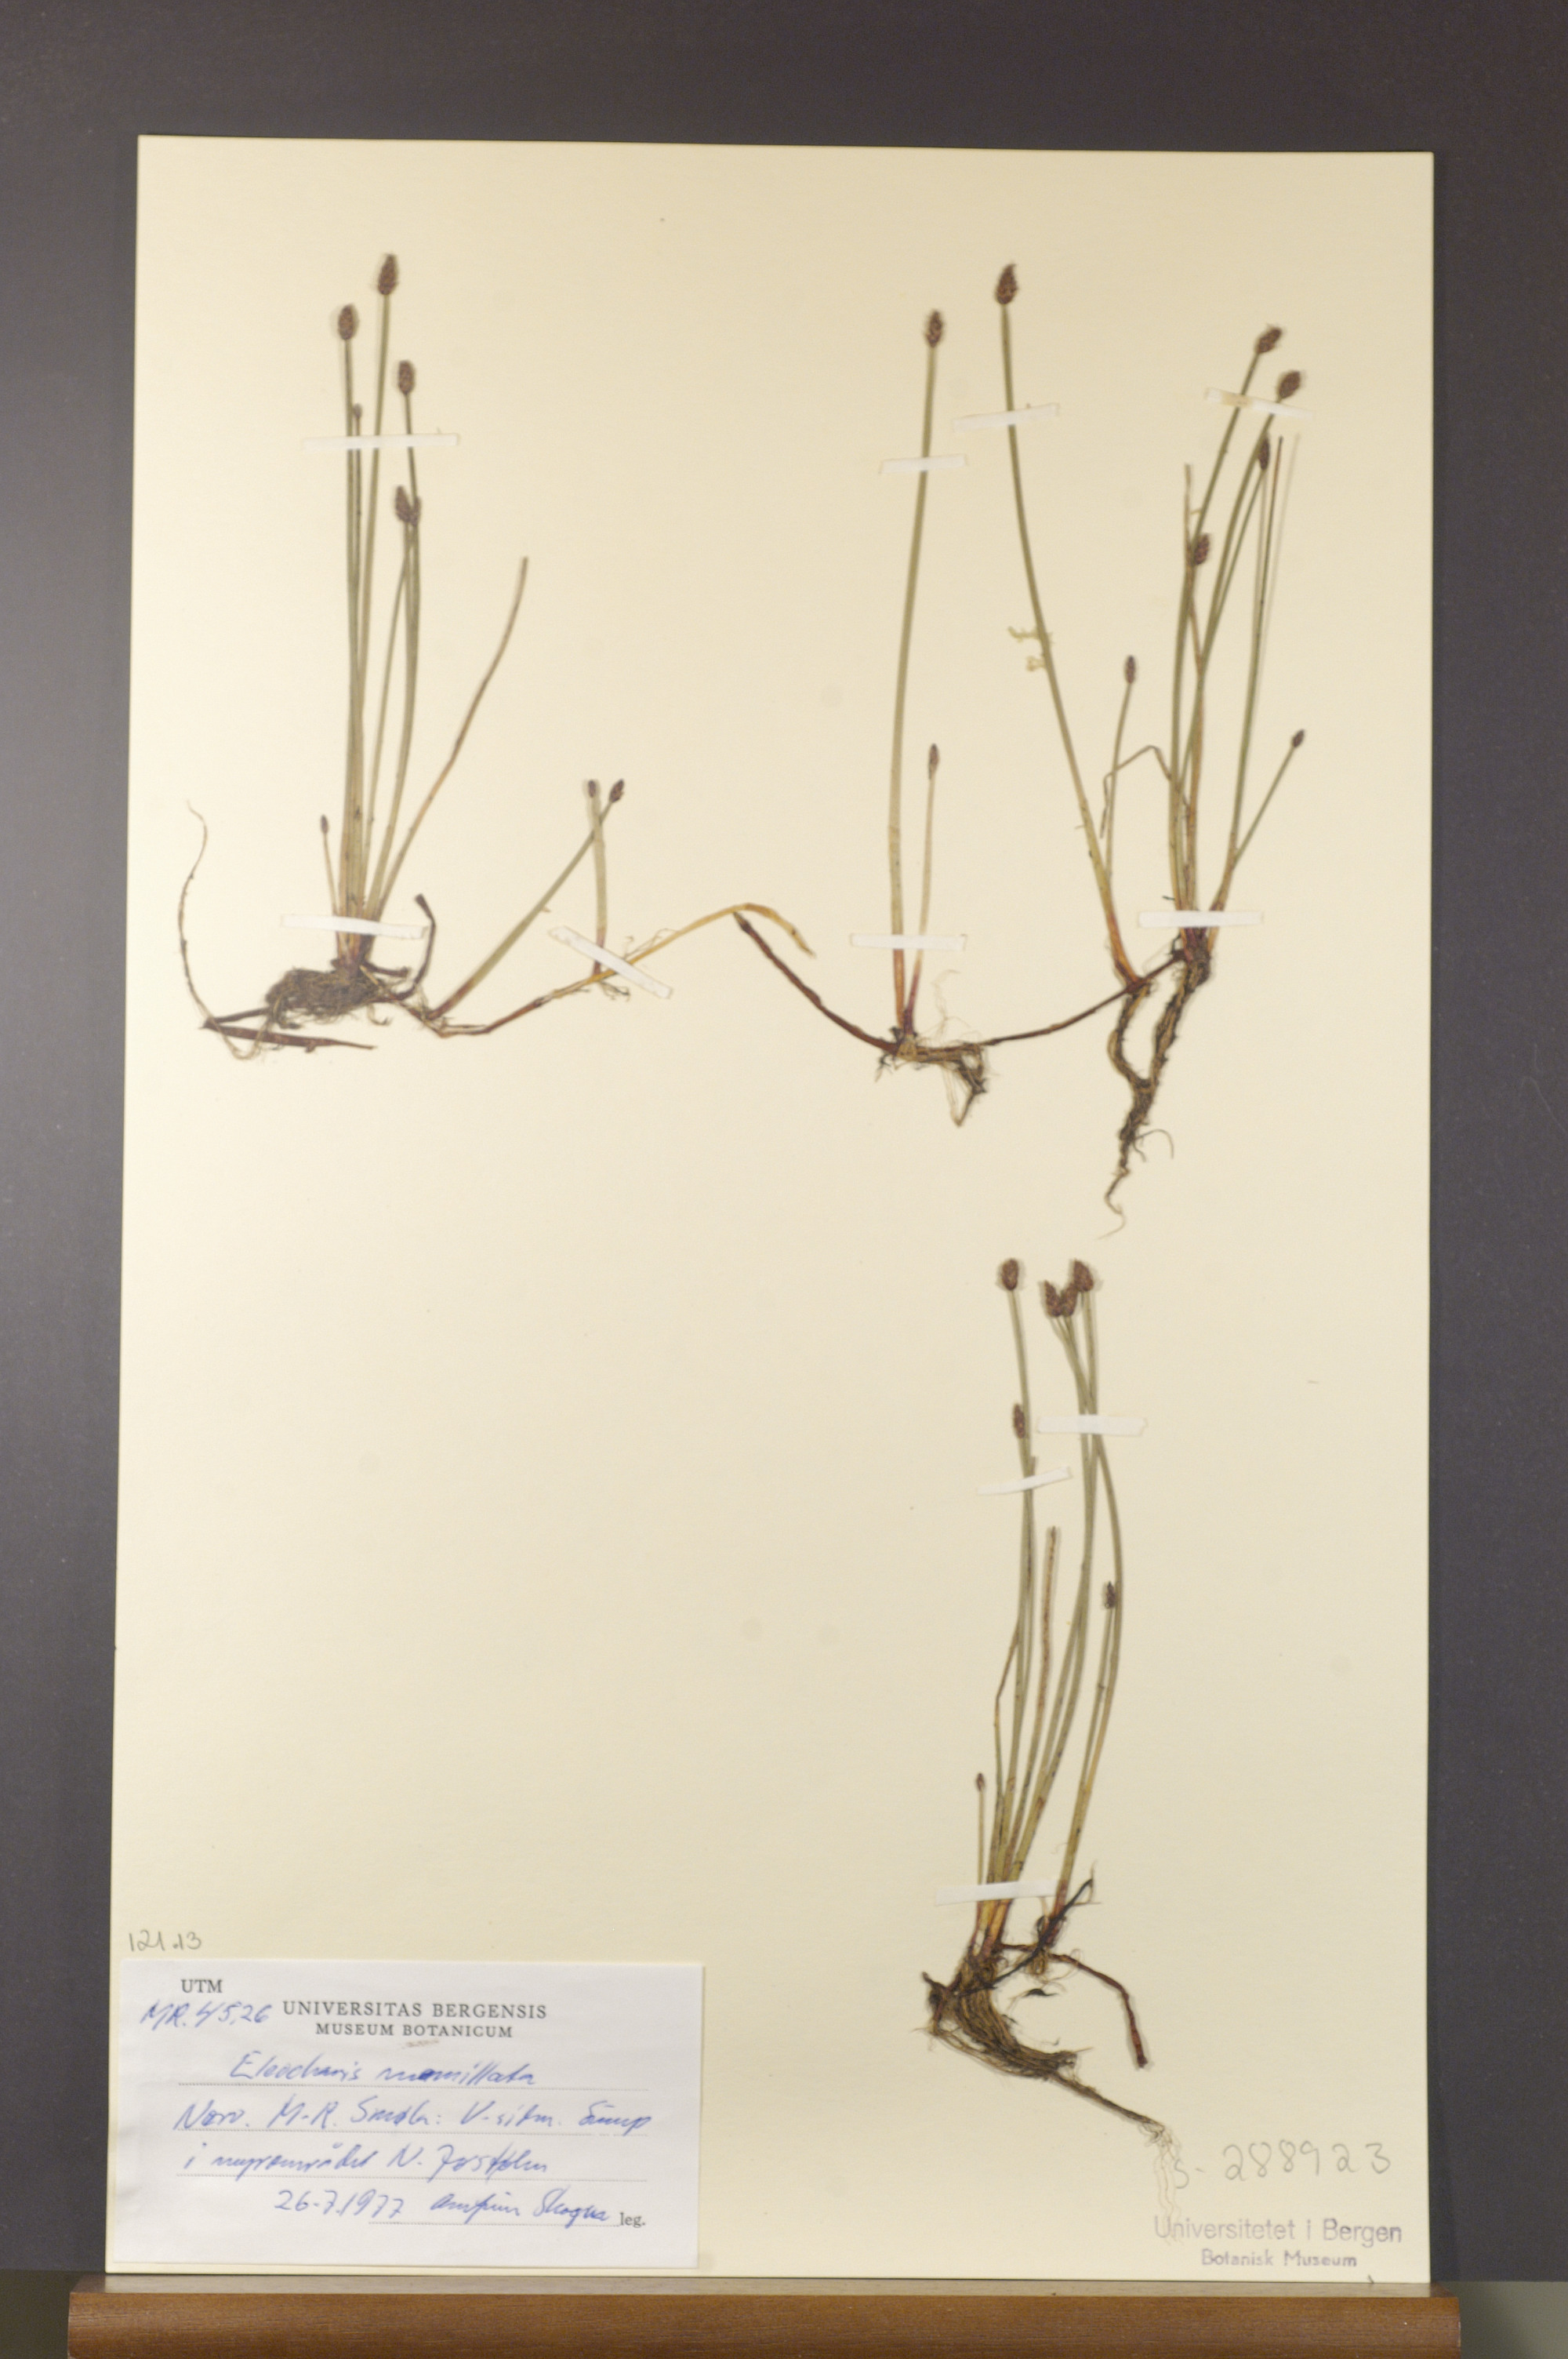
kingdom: Plantae
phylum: Tracheophyta
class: Liliopsida
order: Poales
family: Cyperaceae
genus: Eleocharis
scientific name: Eleocharis mamillata
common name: Northern spike-rush
